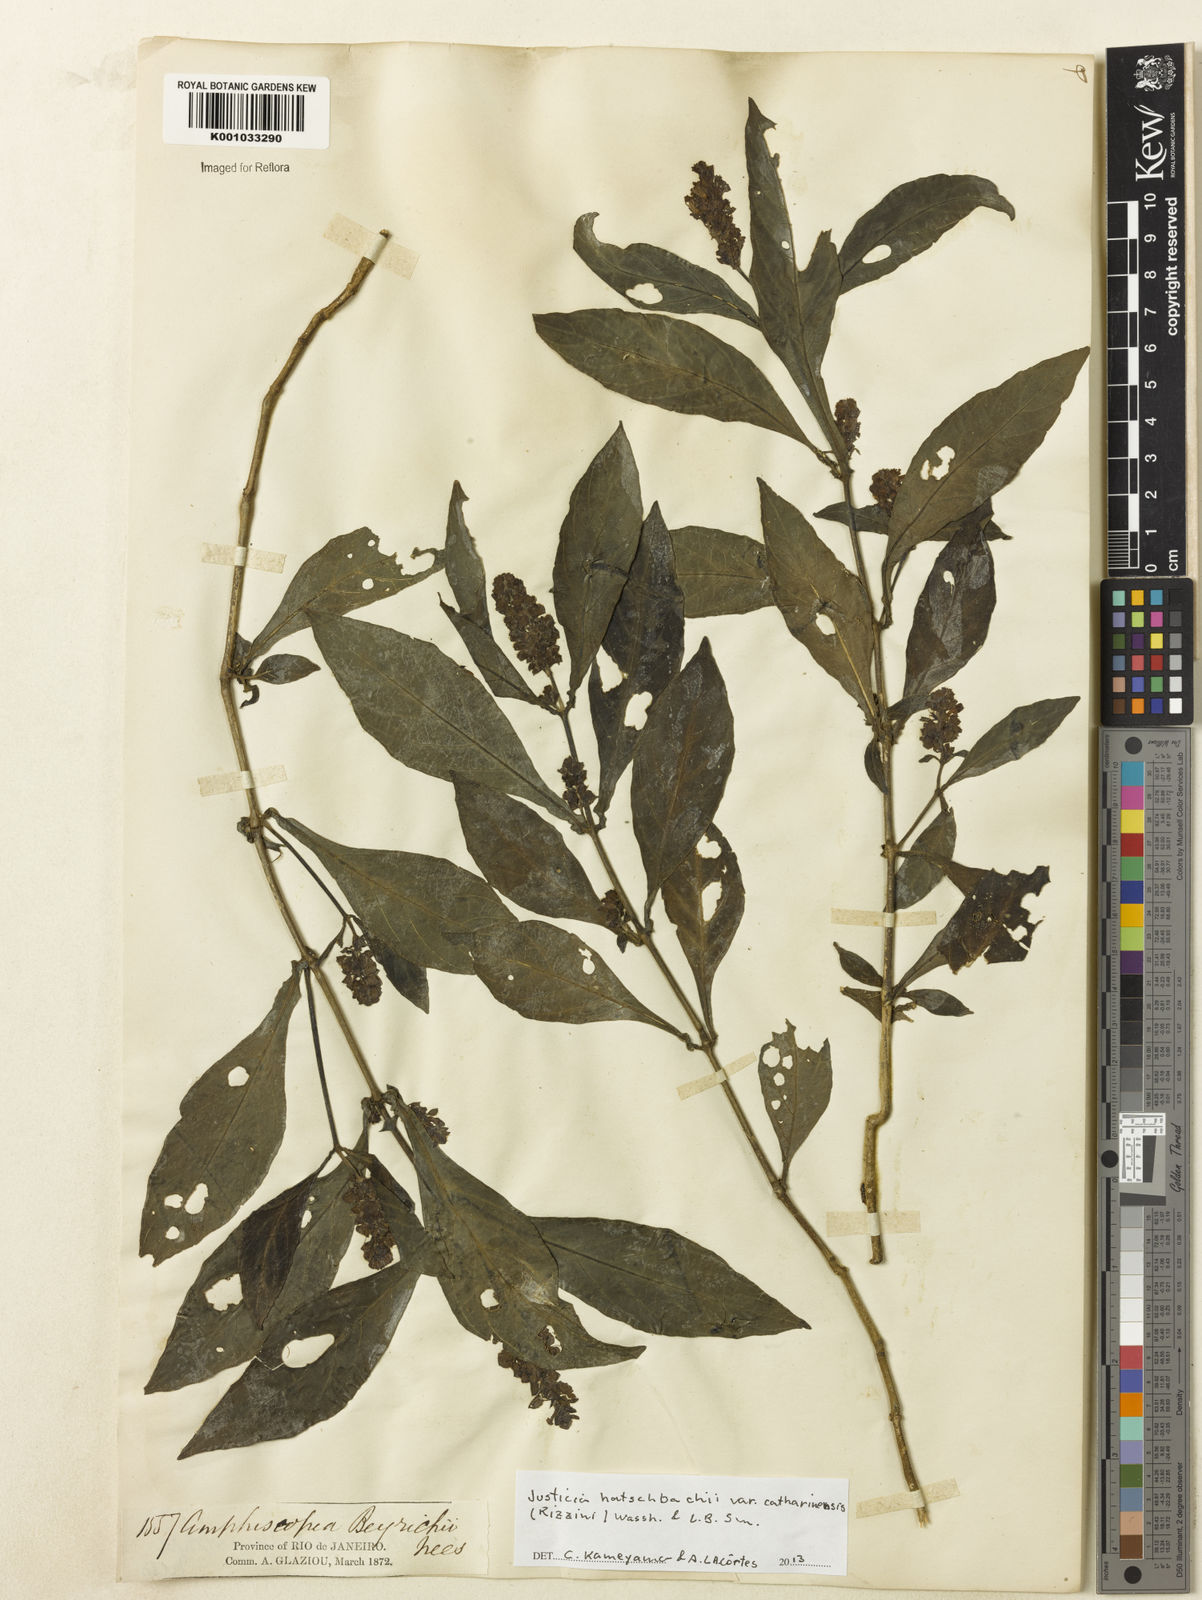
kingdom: Plantae
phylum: Tracheophyta
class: Magnoliopsida
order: Lamiales
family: Acanthaceae
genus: Justicia
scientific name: Justicia hatschbachii
